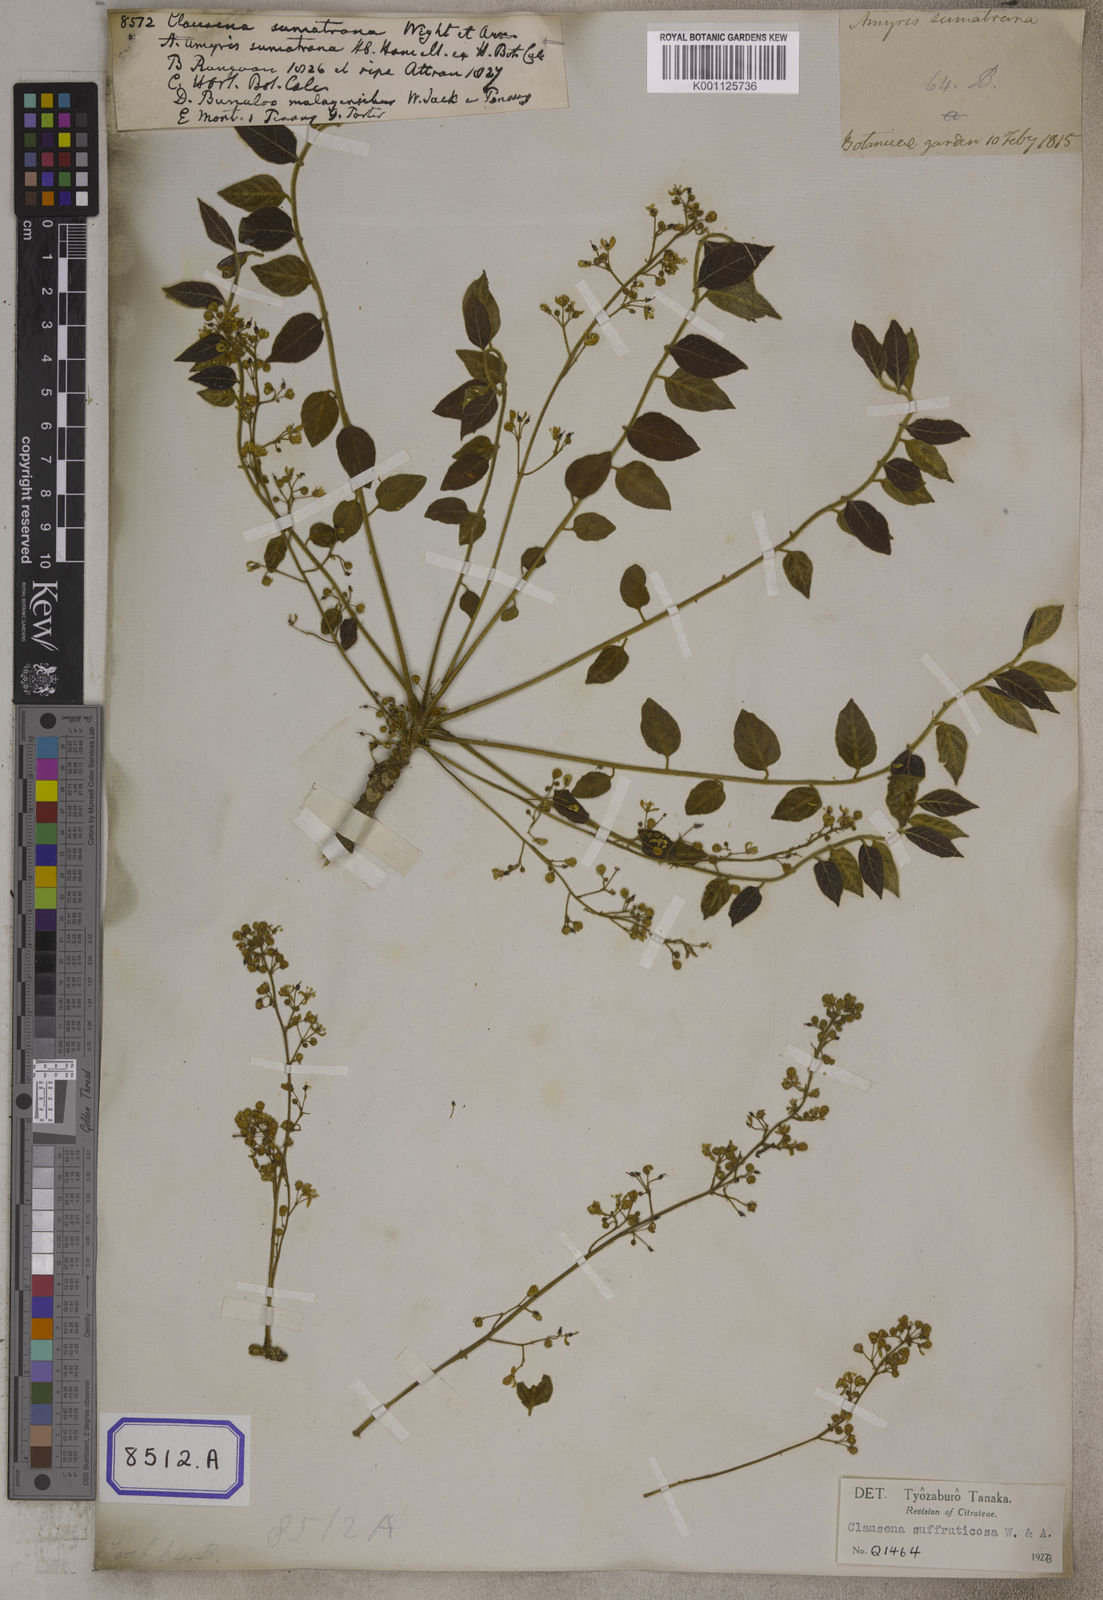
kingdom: Plantae
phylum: Tracheophyta
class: Magnoliopsida
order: Sapindales
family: Rutaceae
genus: Clausena
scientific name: Clausena
